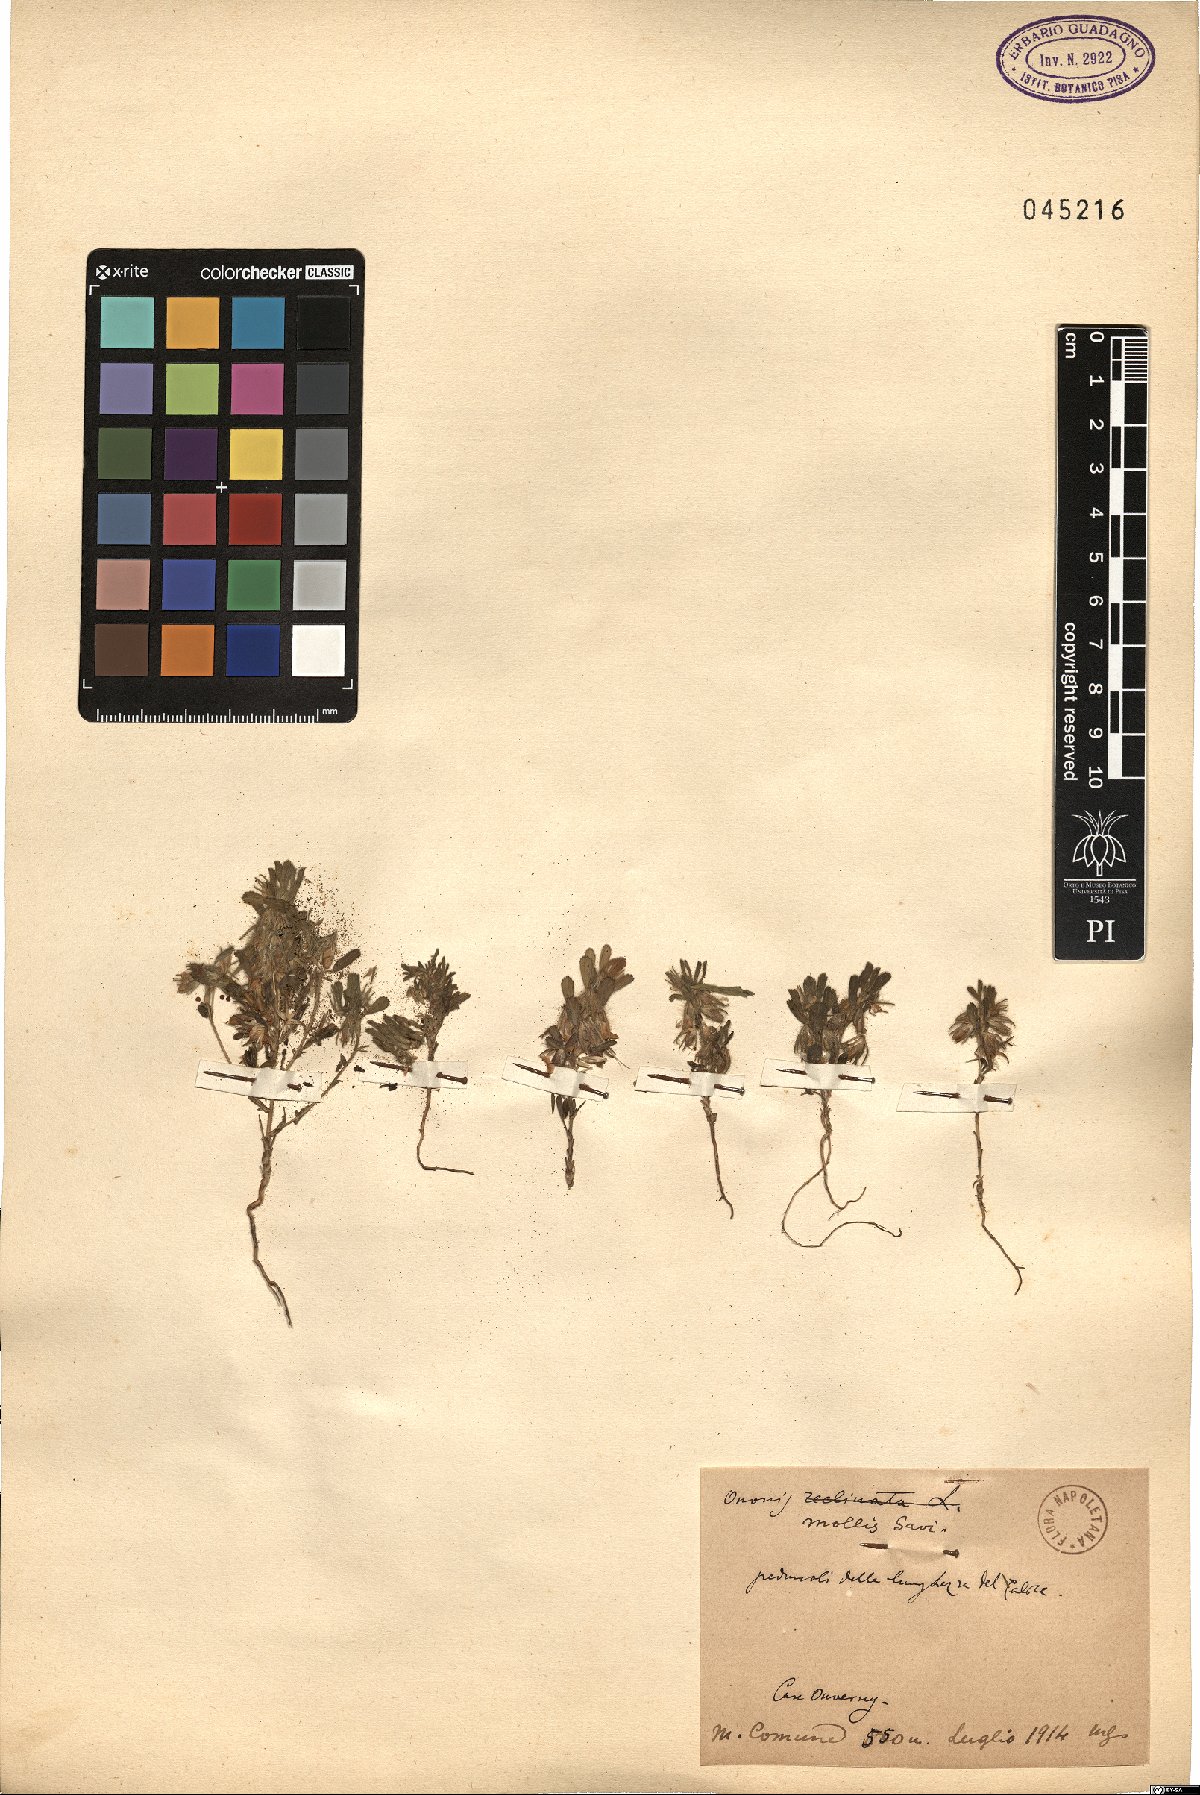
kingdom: Plantae
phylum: Tracheophyta
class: Magnoliopsida
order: Fabales
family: Fabaceae
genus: Ononis
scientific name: Ononis reclinata
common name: Small restharrow
